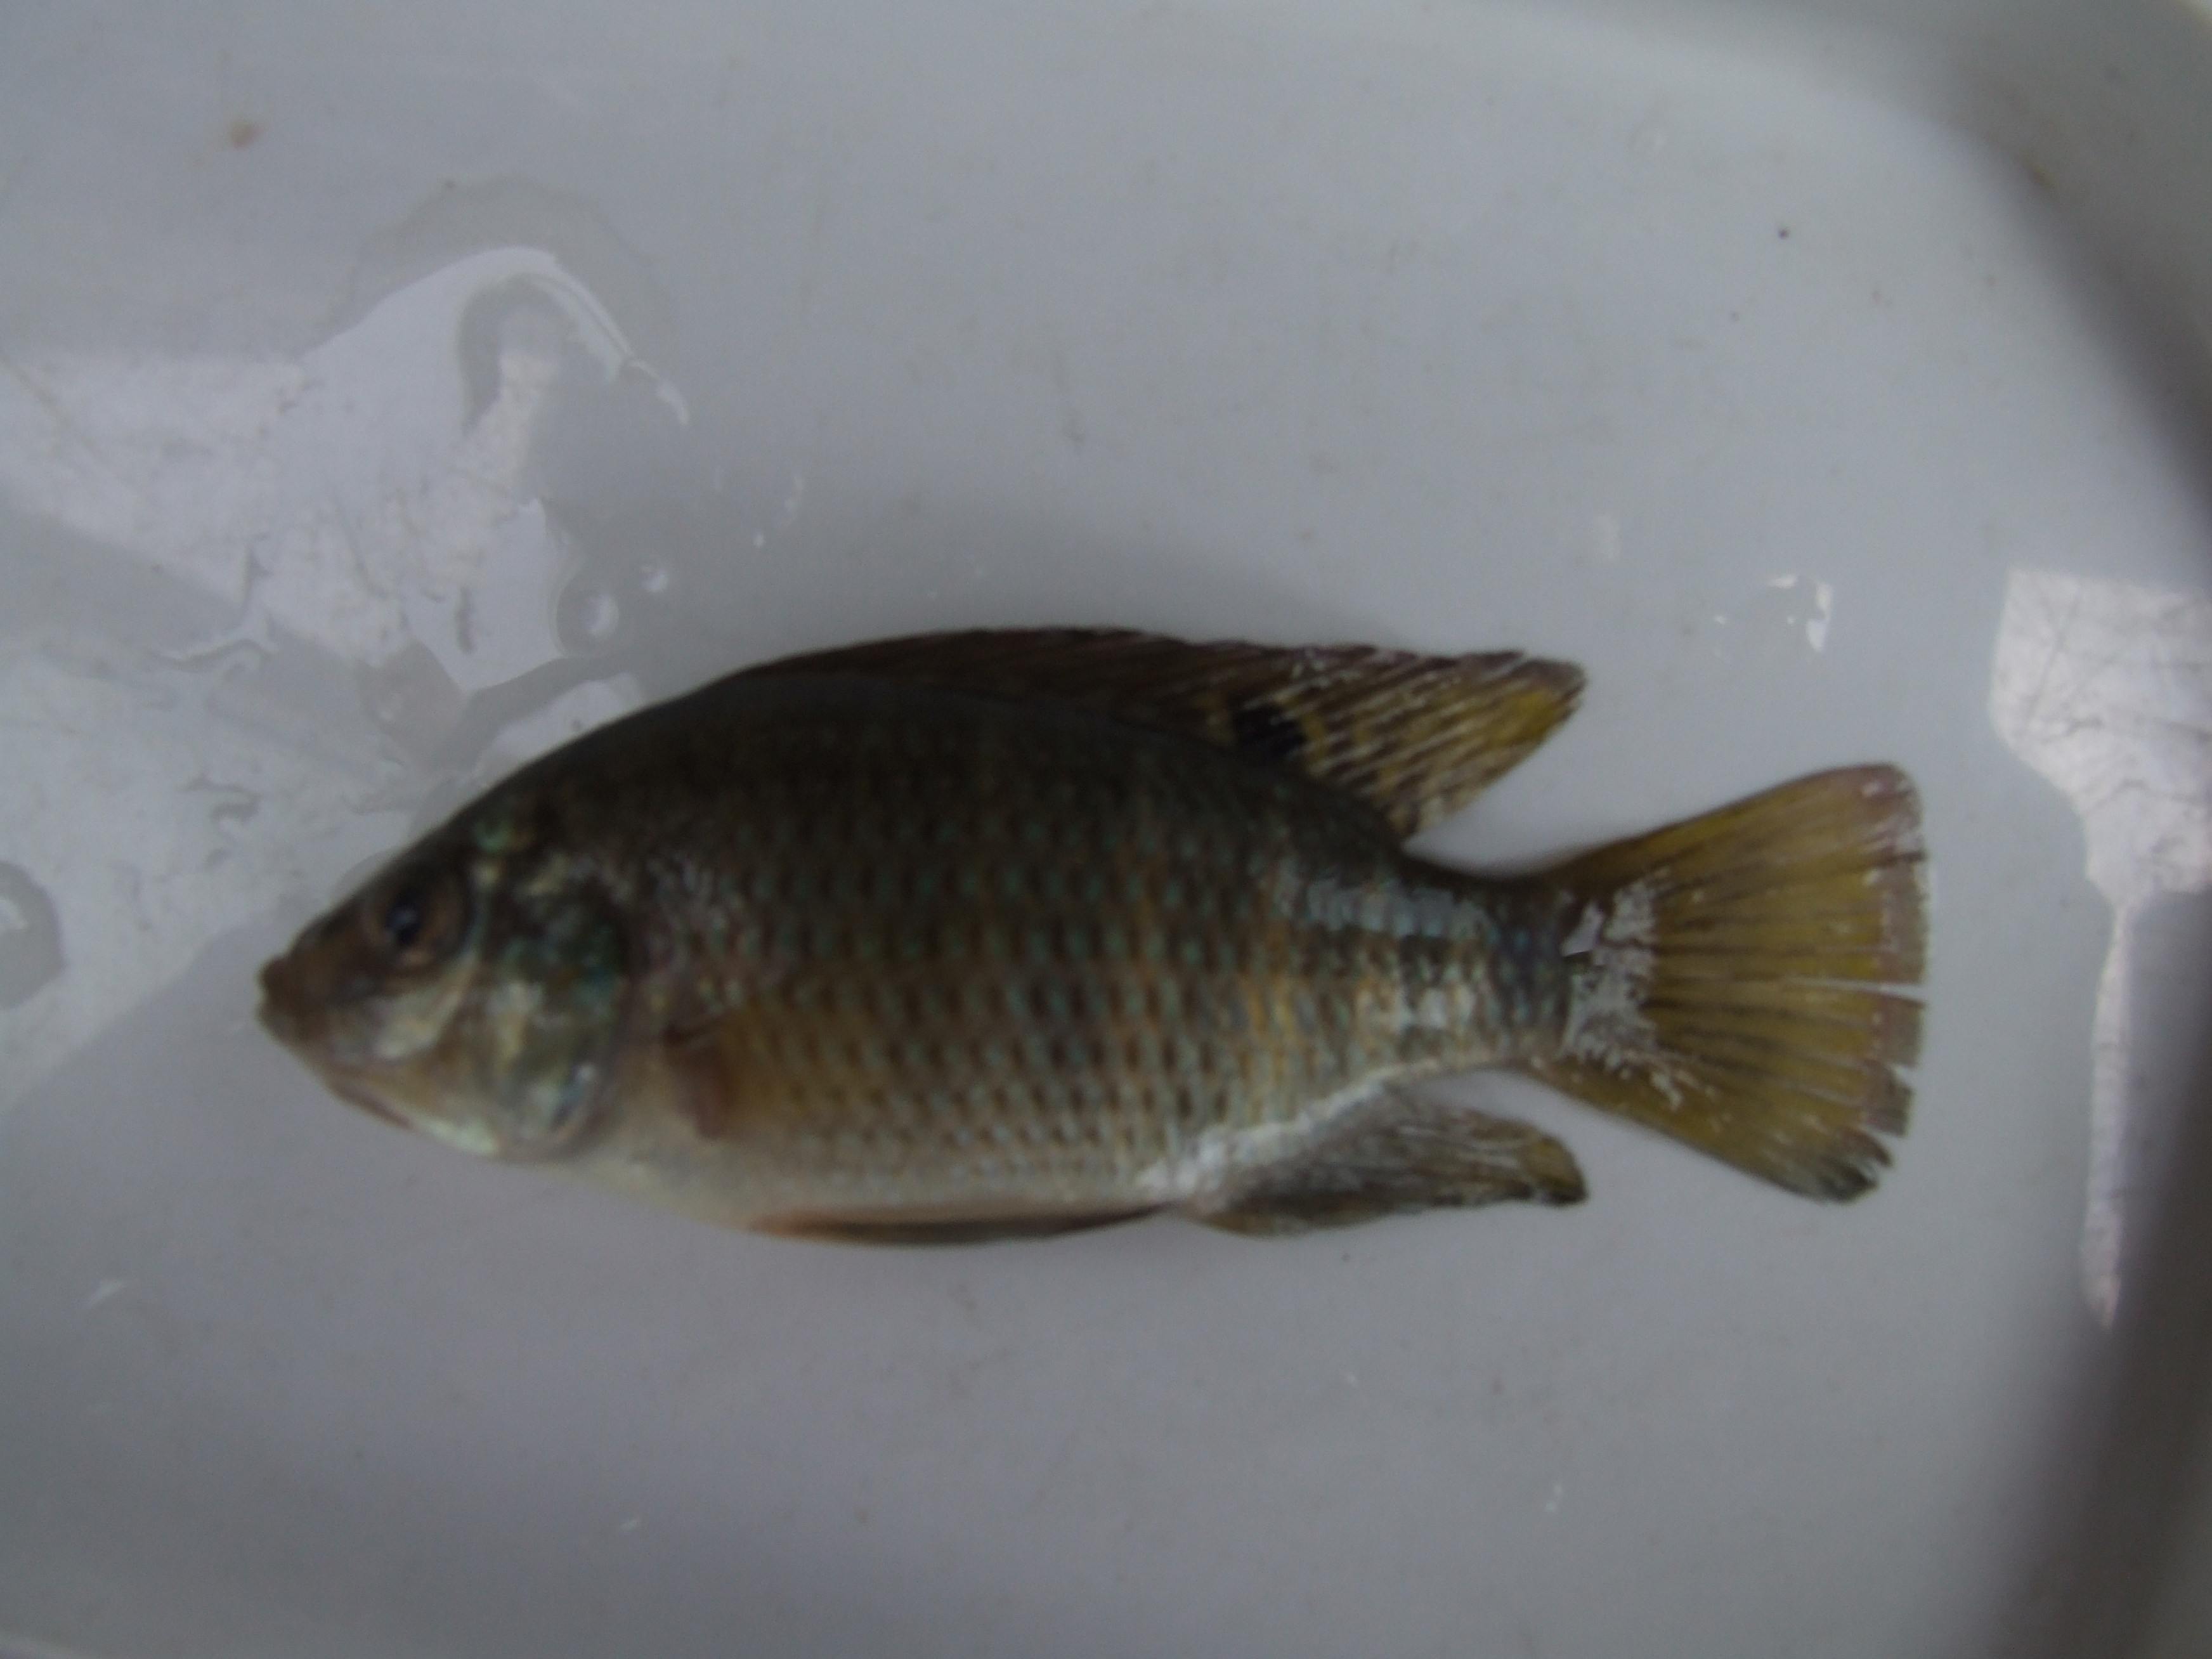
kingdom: Animalia
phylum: Chordata
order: Perciformes
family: Cichlidae
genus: Tilapia
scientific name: Tilapia sparrmanii
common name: Banded tilapia
